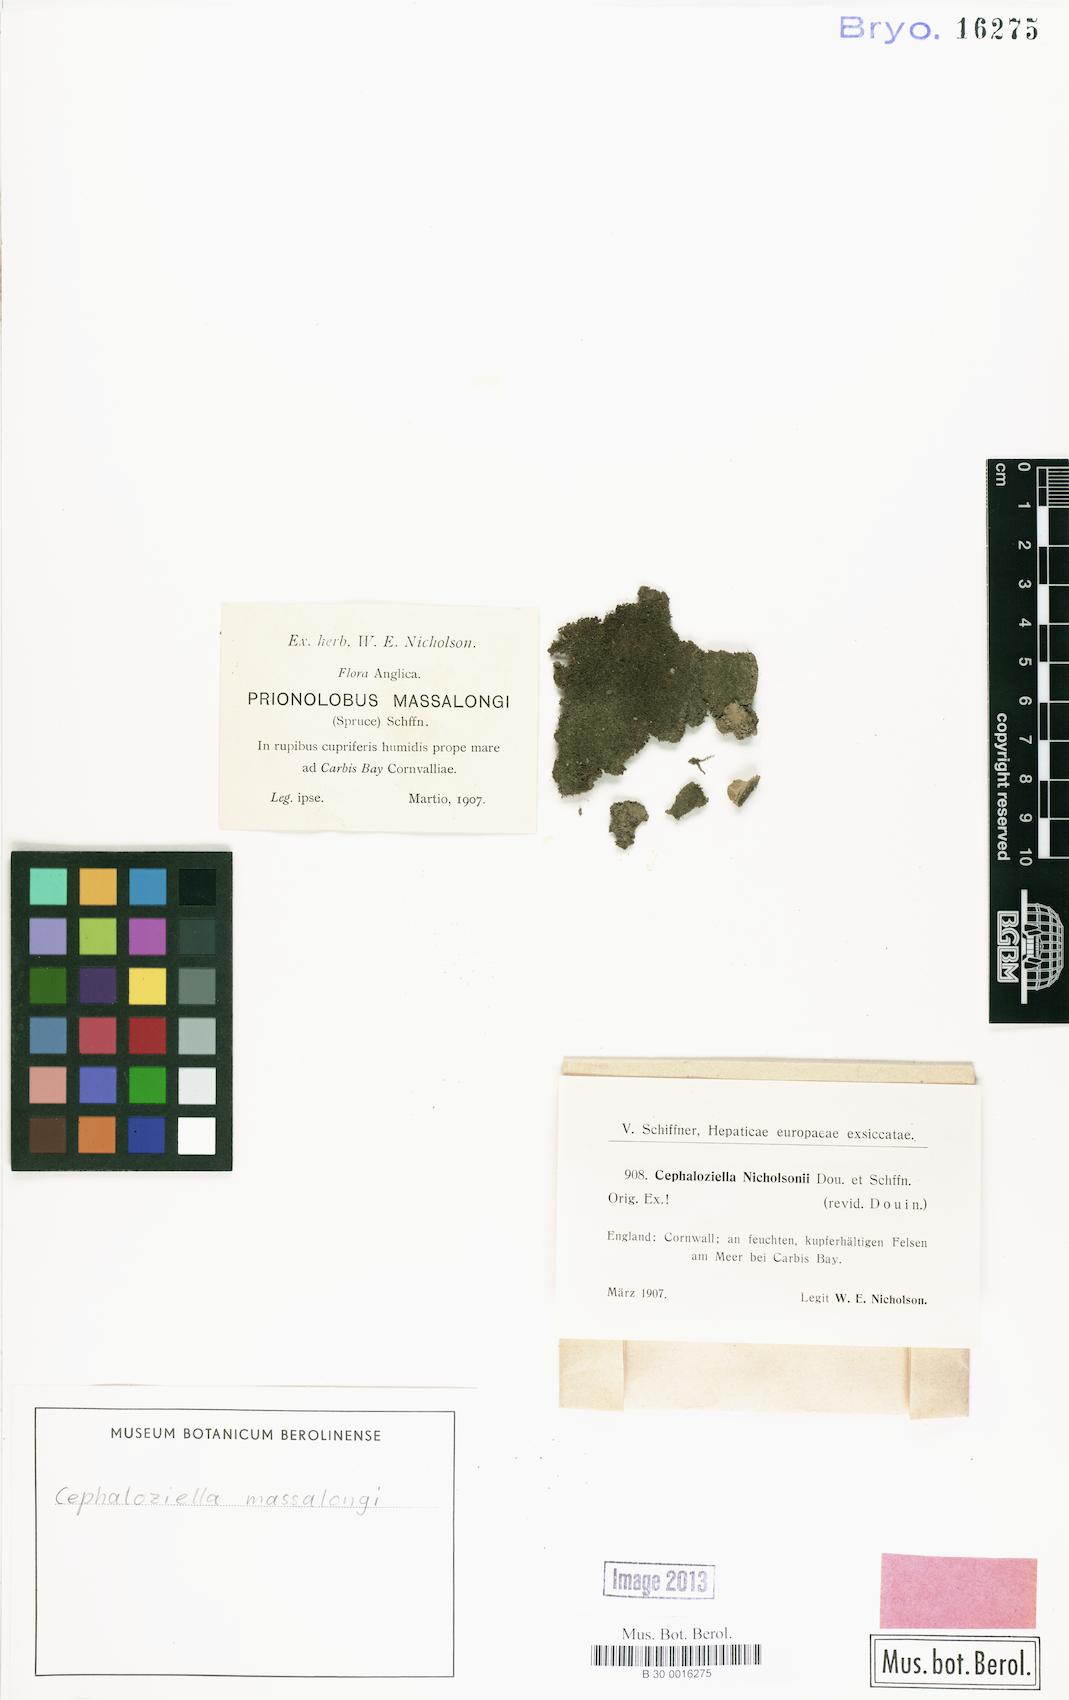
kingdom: Plantae
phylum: Marchantiophyta
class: Jungermanniopsida
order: Jungermanniales
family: Cephaloziellaceae
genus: Cephaloziella
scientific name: Cephaloziella massalongi
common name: Lesser copperwort
